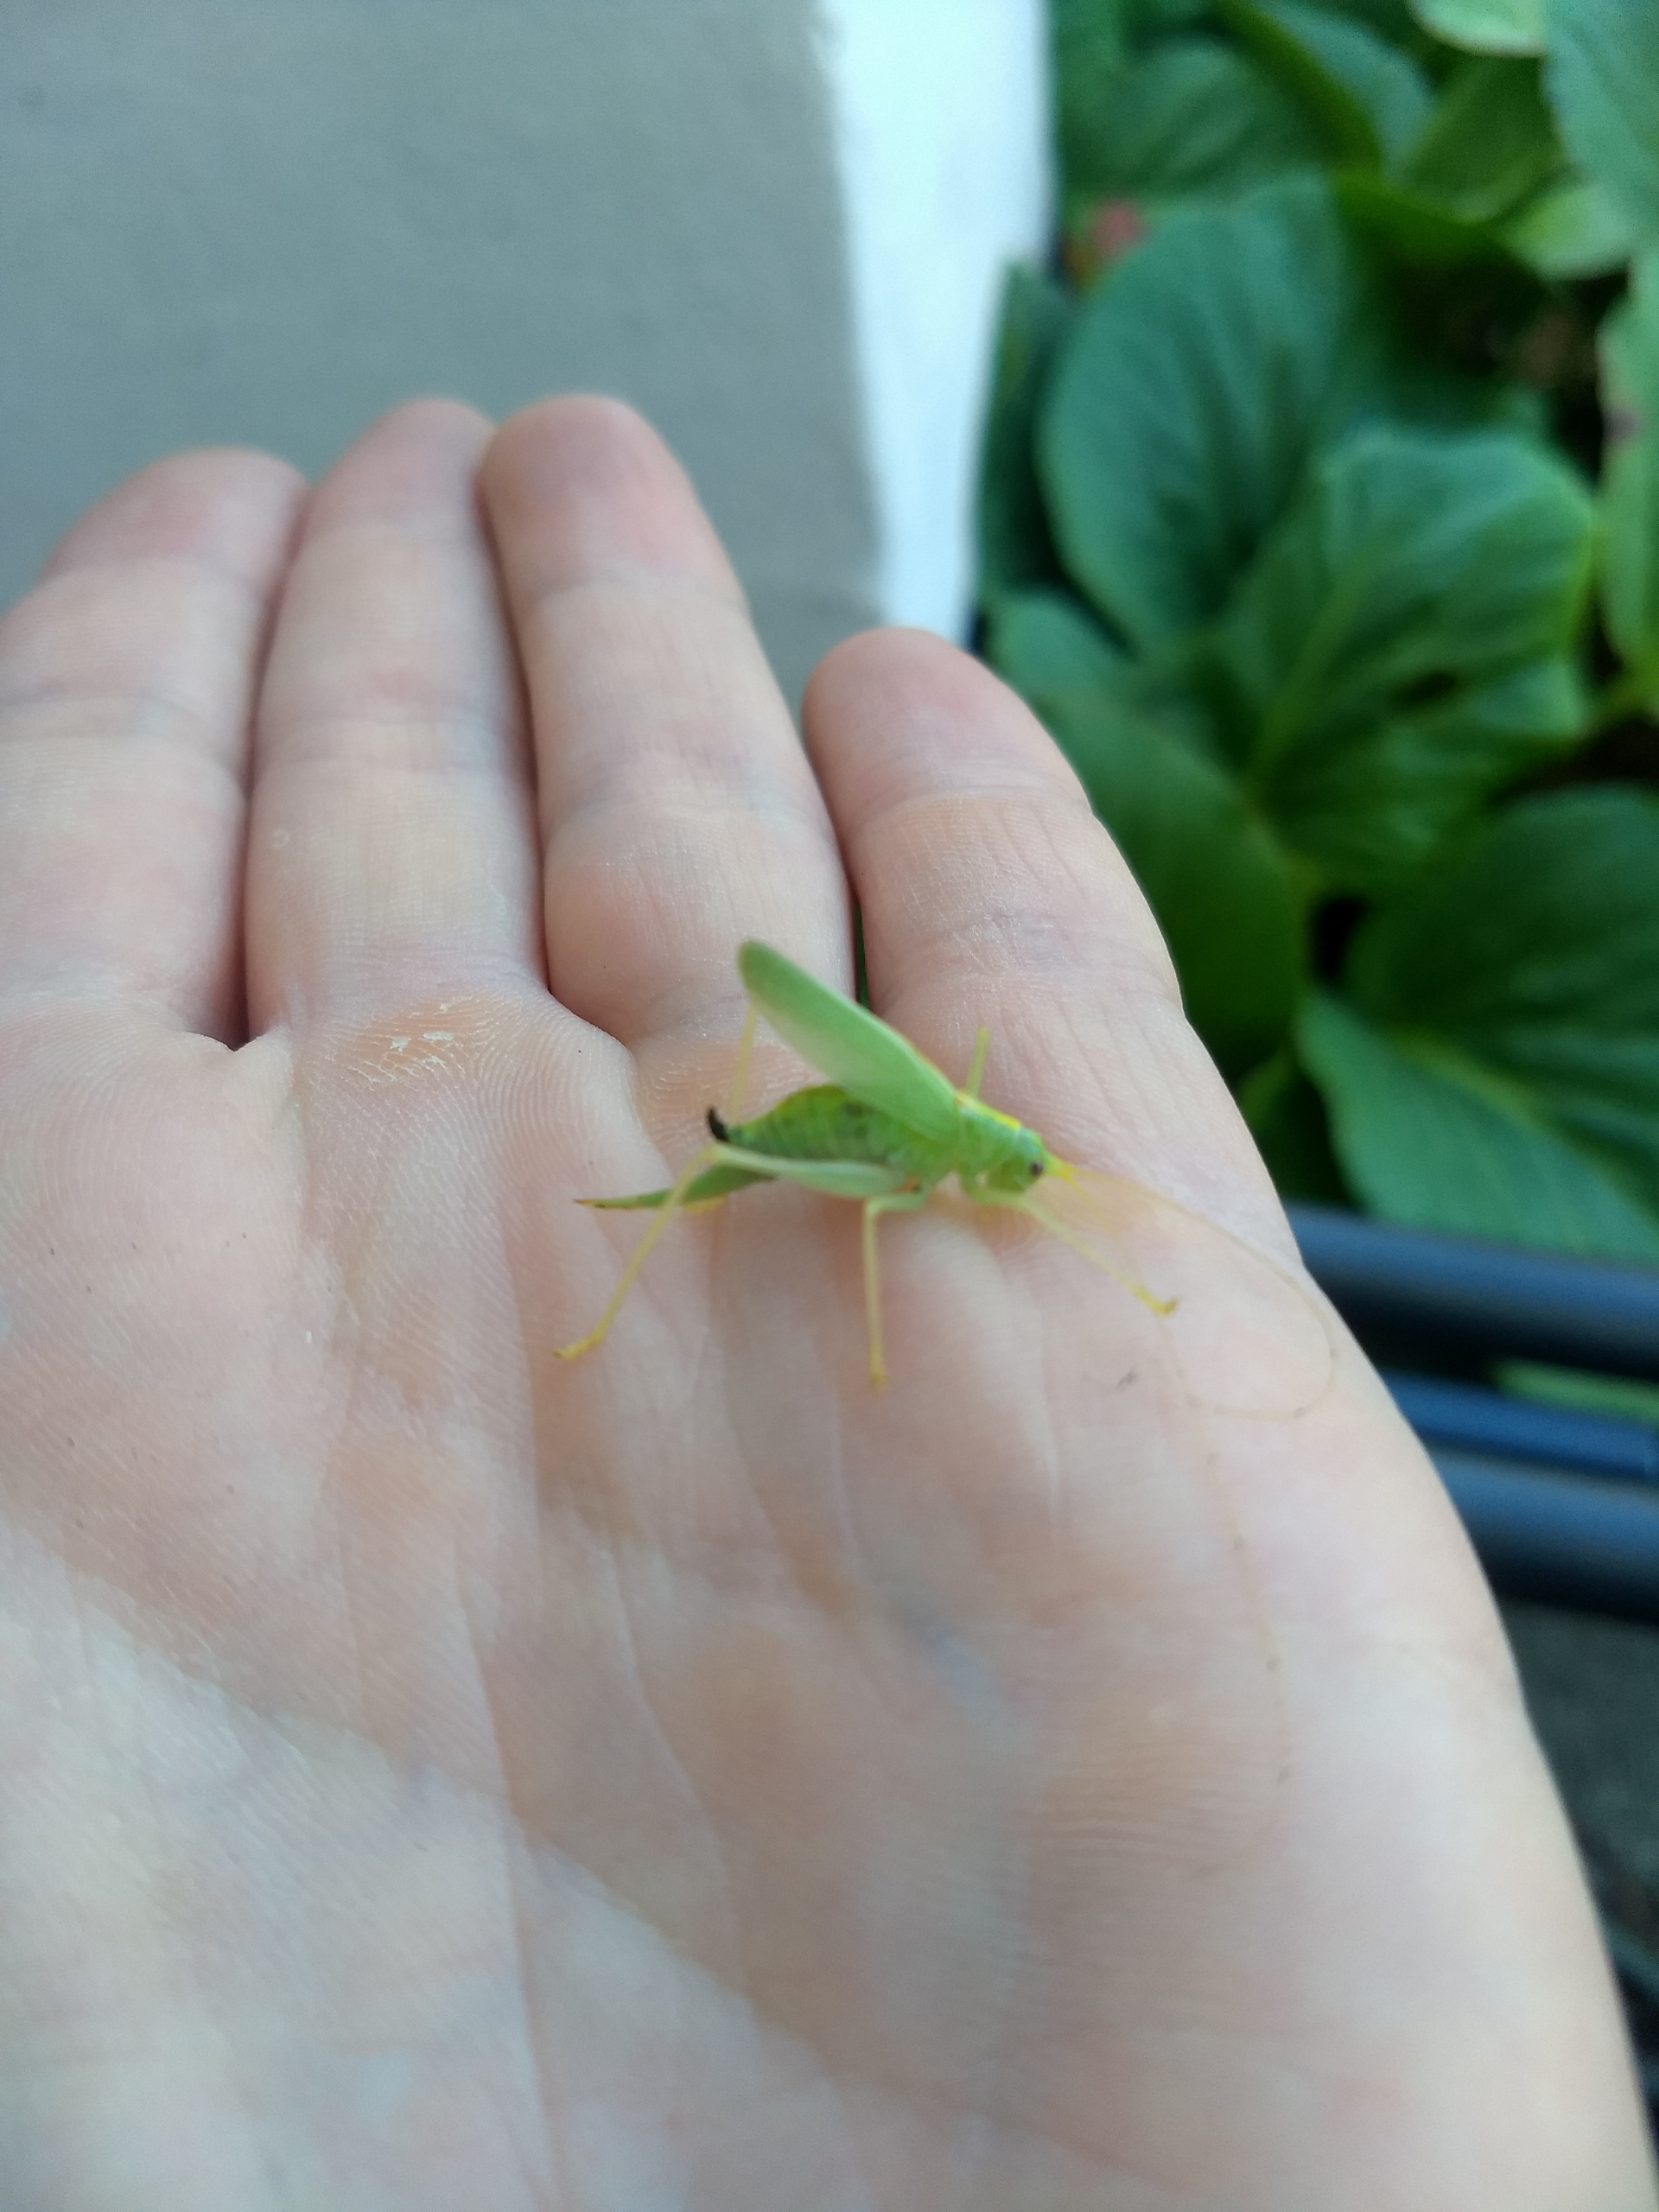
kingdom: Animalia
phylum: Arthropoda
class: Insecta
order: Orthoptera
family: Tettigoniidae
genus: Meconema
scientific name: Meconema thalassinum
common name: Egegræshoppe
